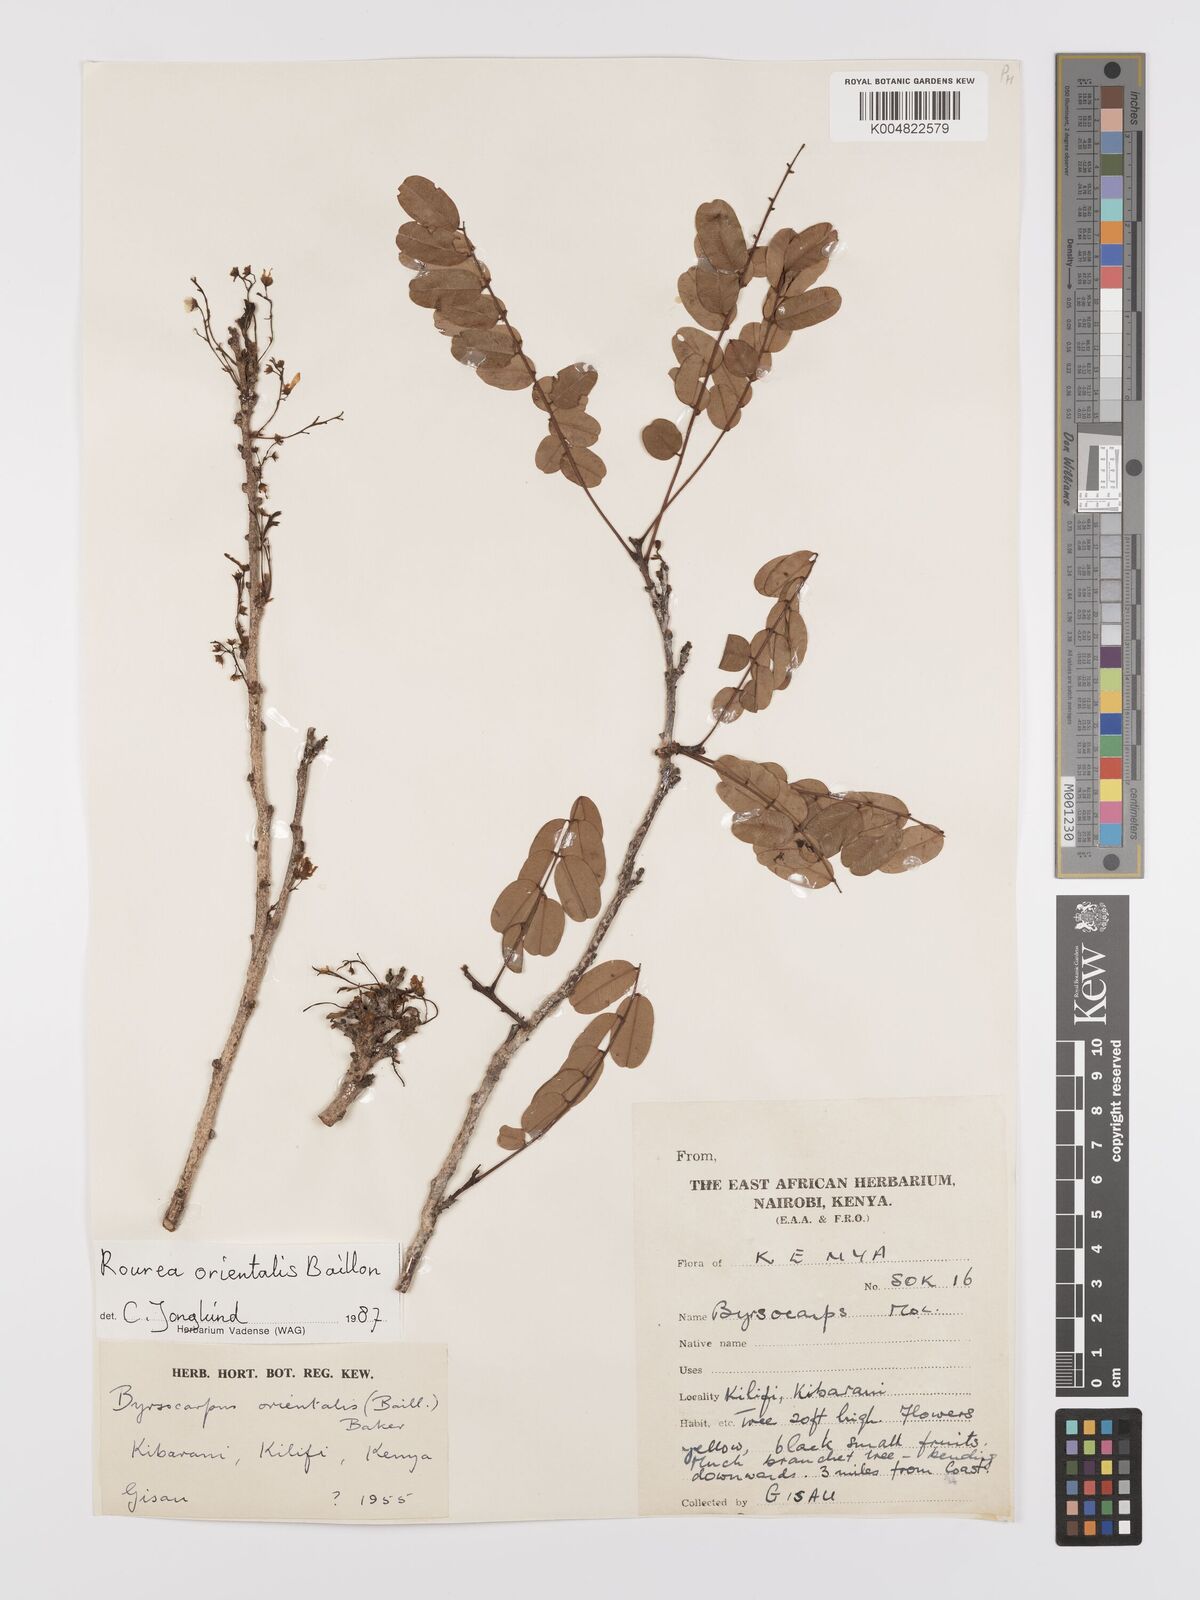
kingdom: Plantae
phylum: Tracheophyta
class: Magnoliopsida
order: Oxalidales
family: Connaraceae
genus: Rourea
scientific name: Rourea orientalis
